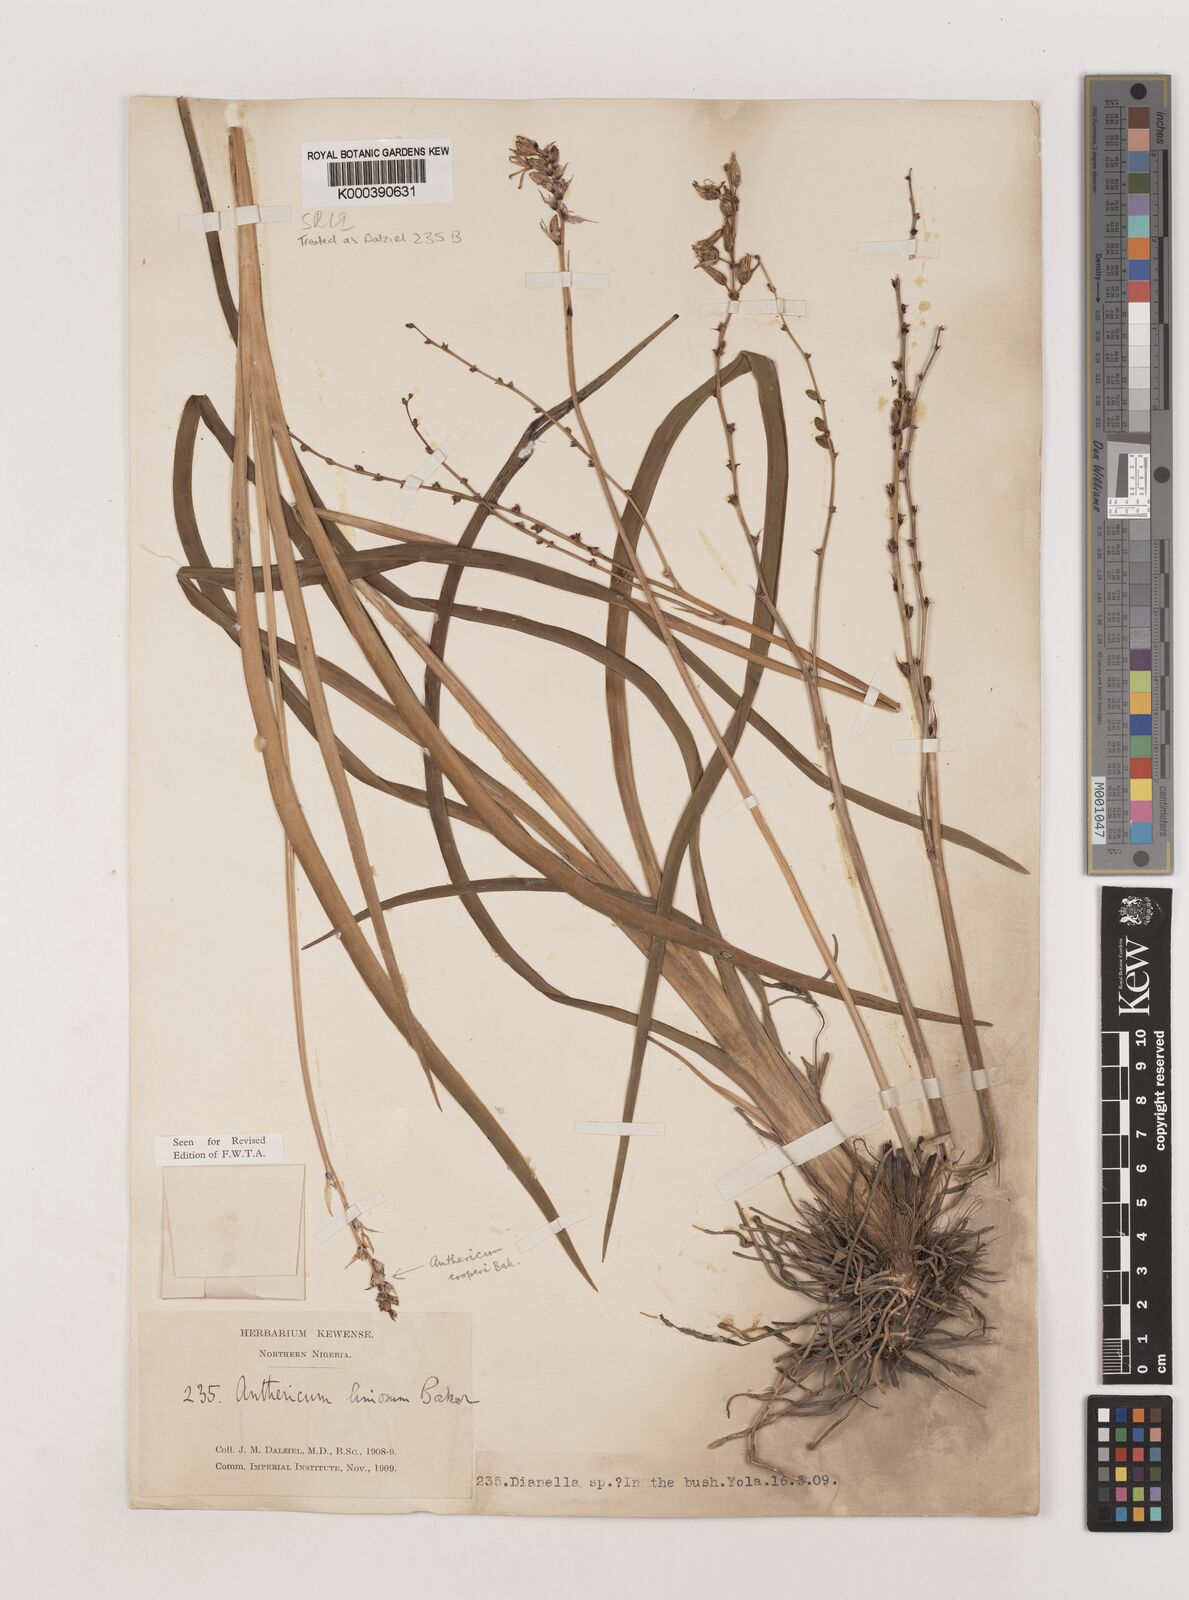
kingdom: Plantae
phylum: Tracheophyta
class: Liliopsida
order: Asparagales
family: Asparagaceae
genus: Chlorophytum
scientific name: Chlorophytum limosum
